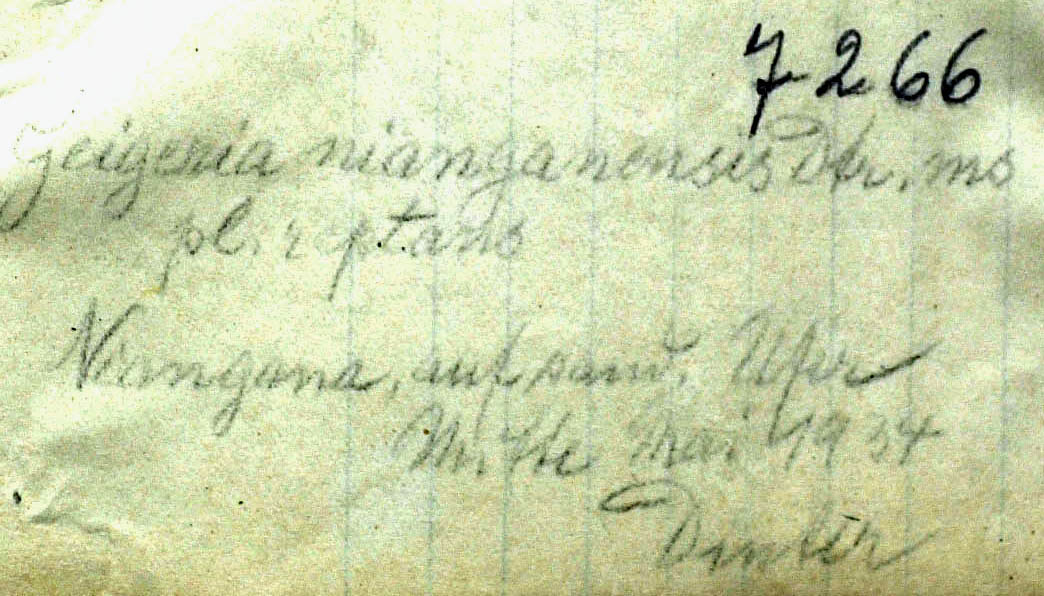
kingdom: Plantae
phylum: Tracheophyta
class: Magnoliopsida
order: Asterales
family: Asteraceae
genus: Geigeria
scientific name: Geigeria nianganensis
